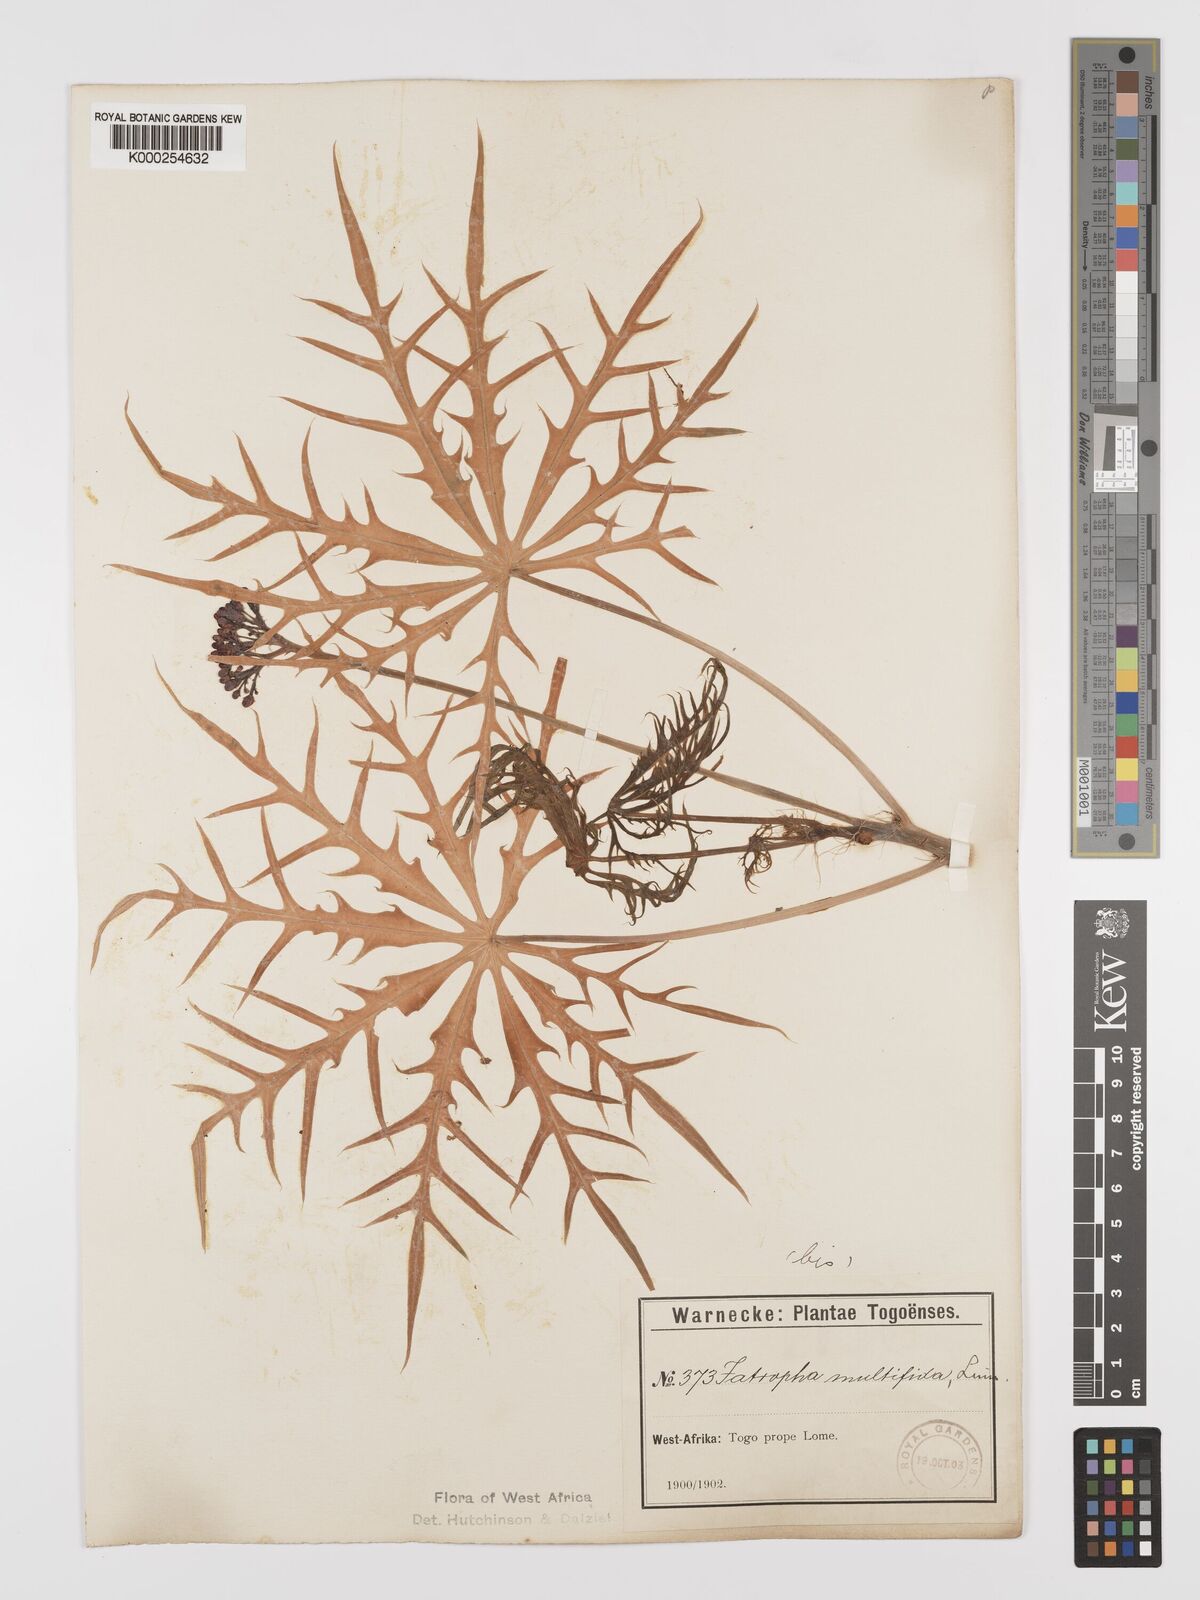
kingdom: Plantae
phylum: Tracheophyta
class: Magnoliopsida
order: Malpighiales
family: Euphorbiaceae
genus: Jatropha
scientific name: Jatropha multifida
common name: Coralbush
